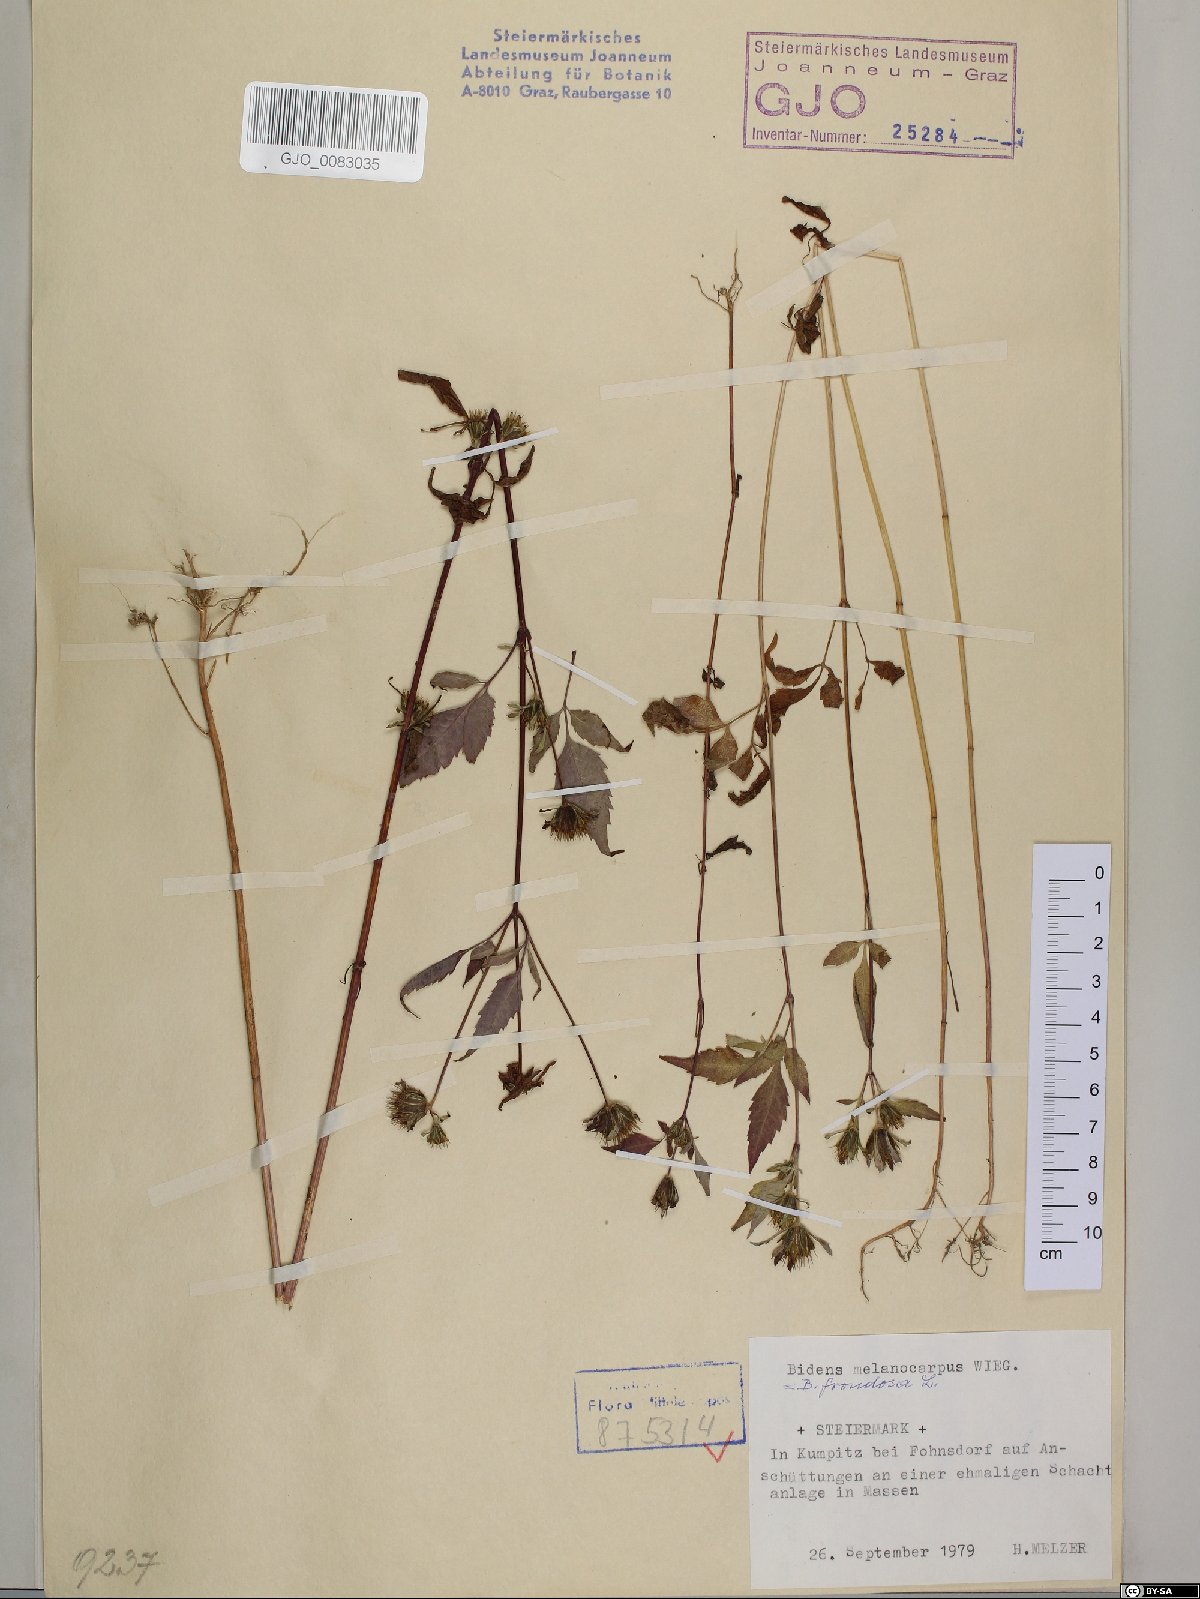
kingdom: Plantae
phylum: Tracheophyta
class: Magnoliopsida
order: Asterales
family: Asteraceae
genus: Bidens
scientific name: Bidens frondosa
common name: Beggarticks
